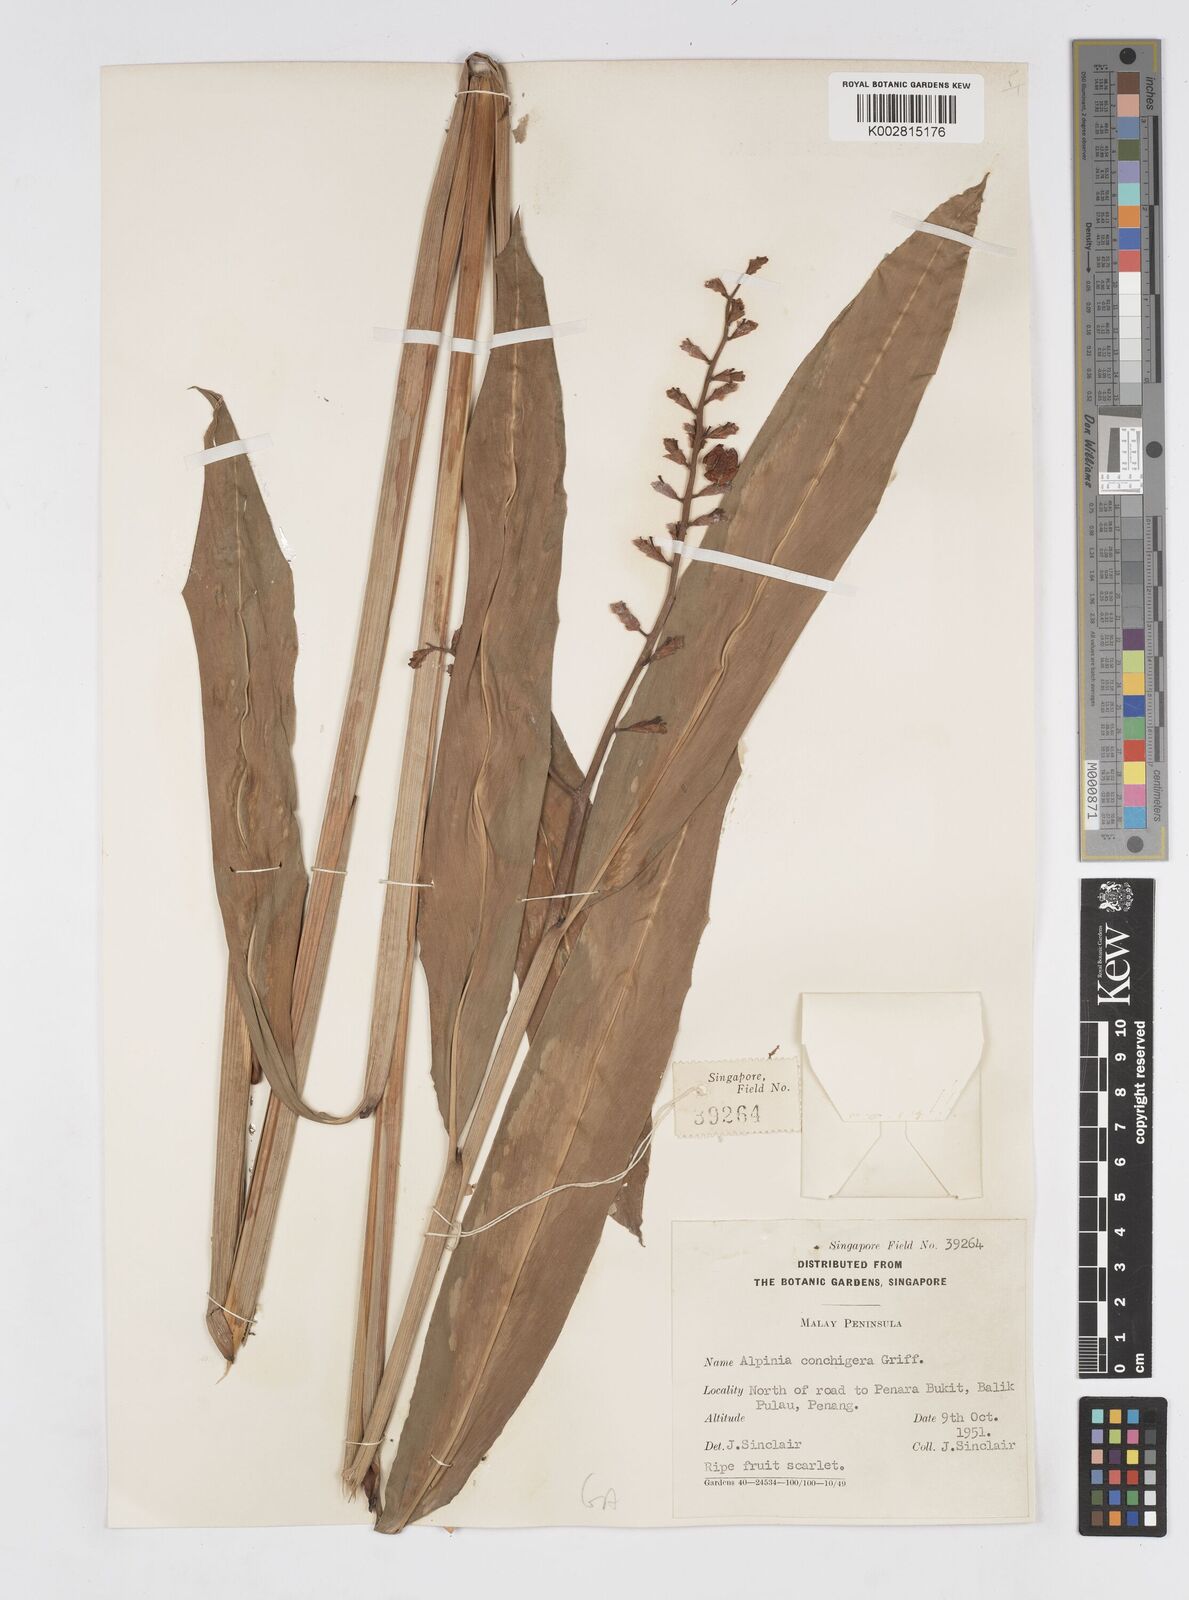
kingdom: Plantae
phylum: Tracheophyta
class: Liliopsida
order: Zingiberales
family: Zingiberaceae
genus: Alpinia
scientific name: Alpinia conchigera
